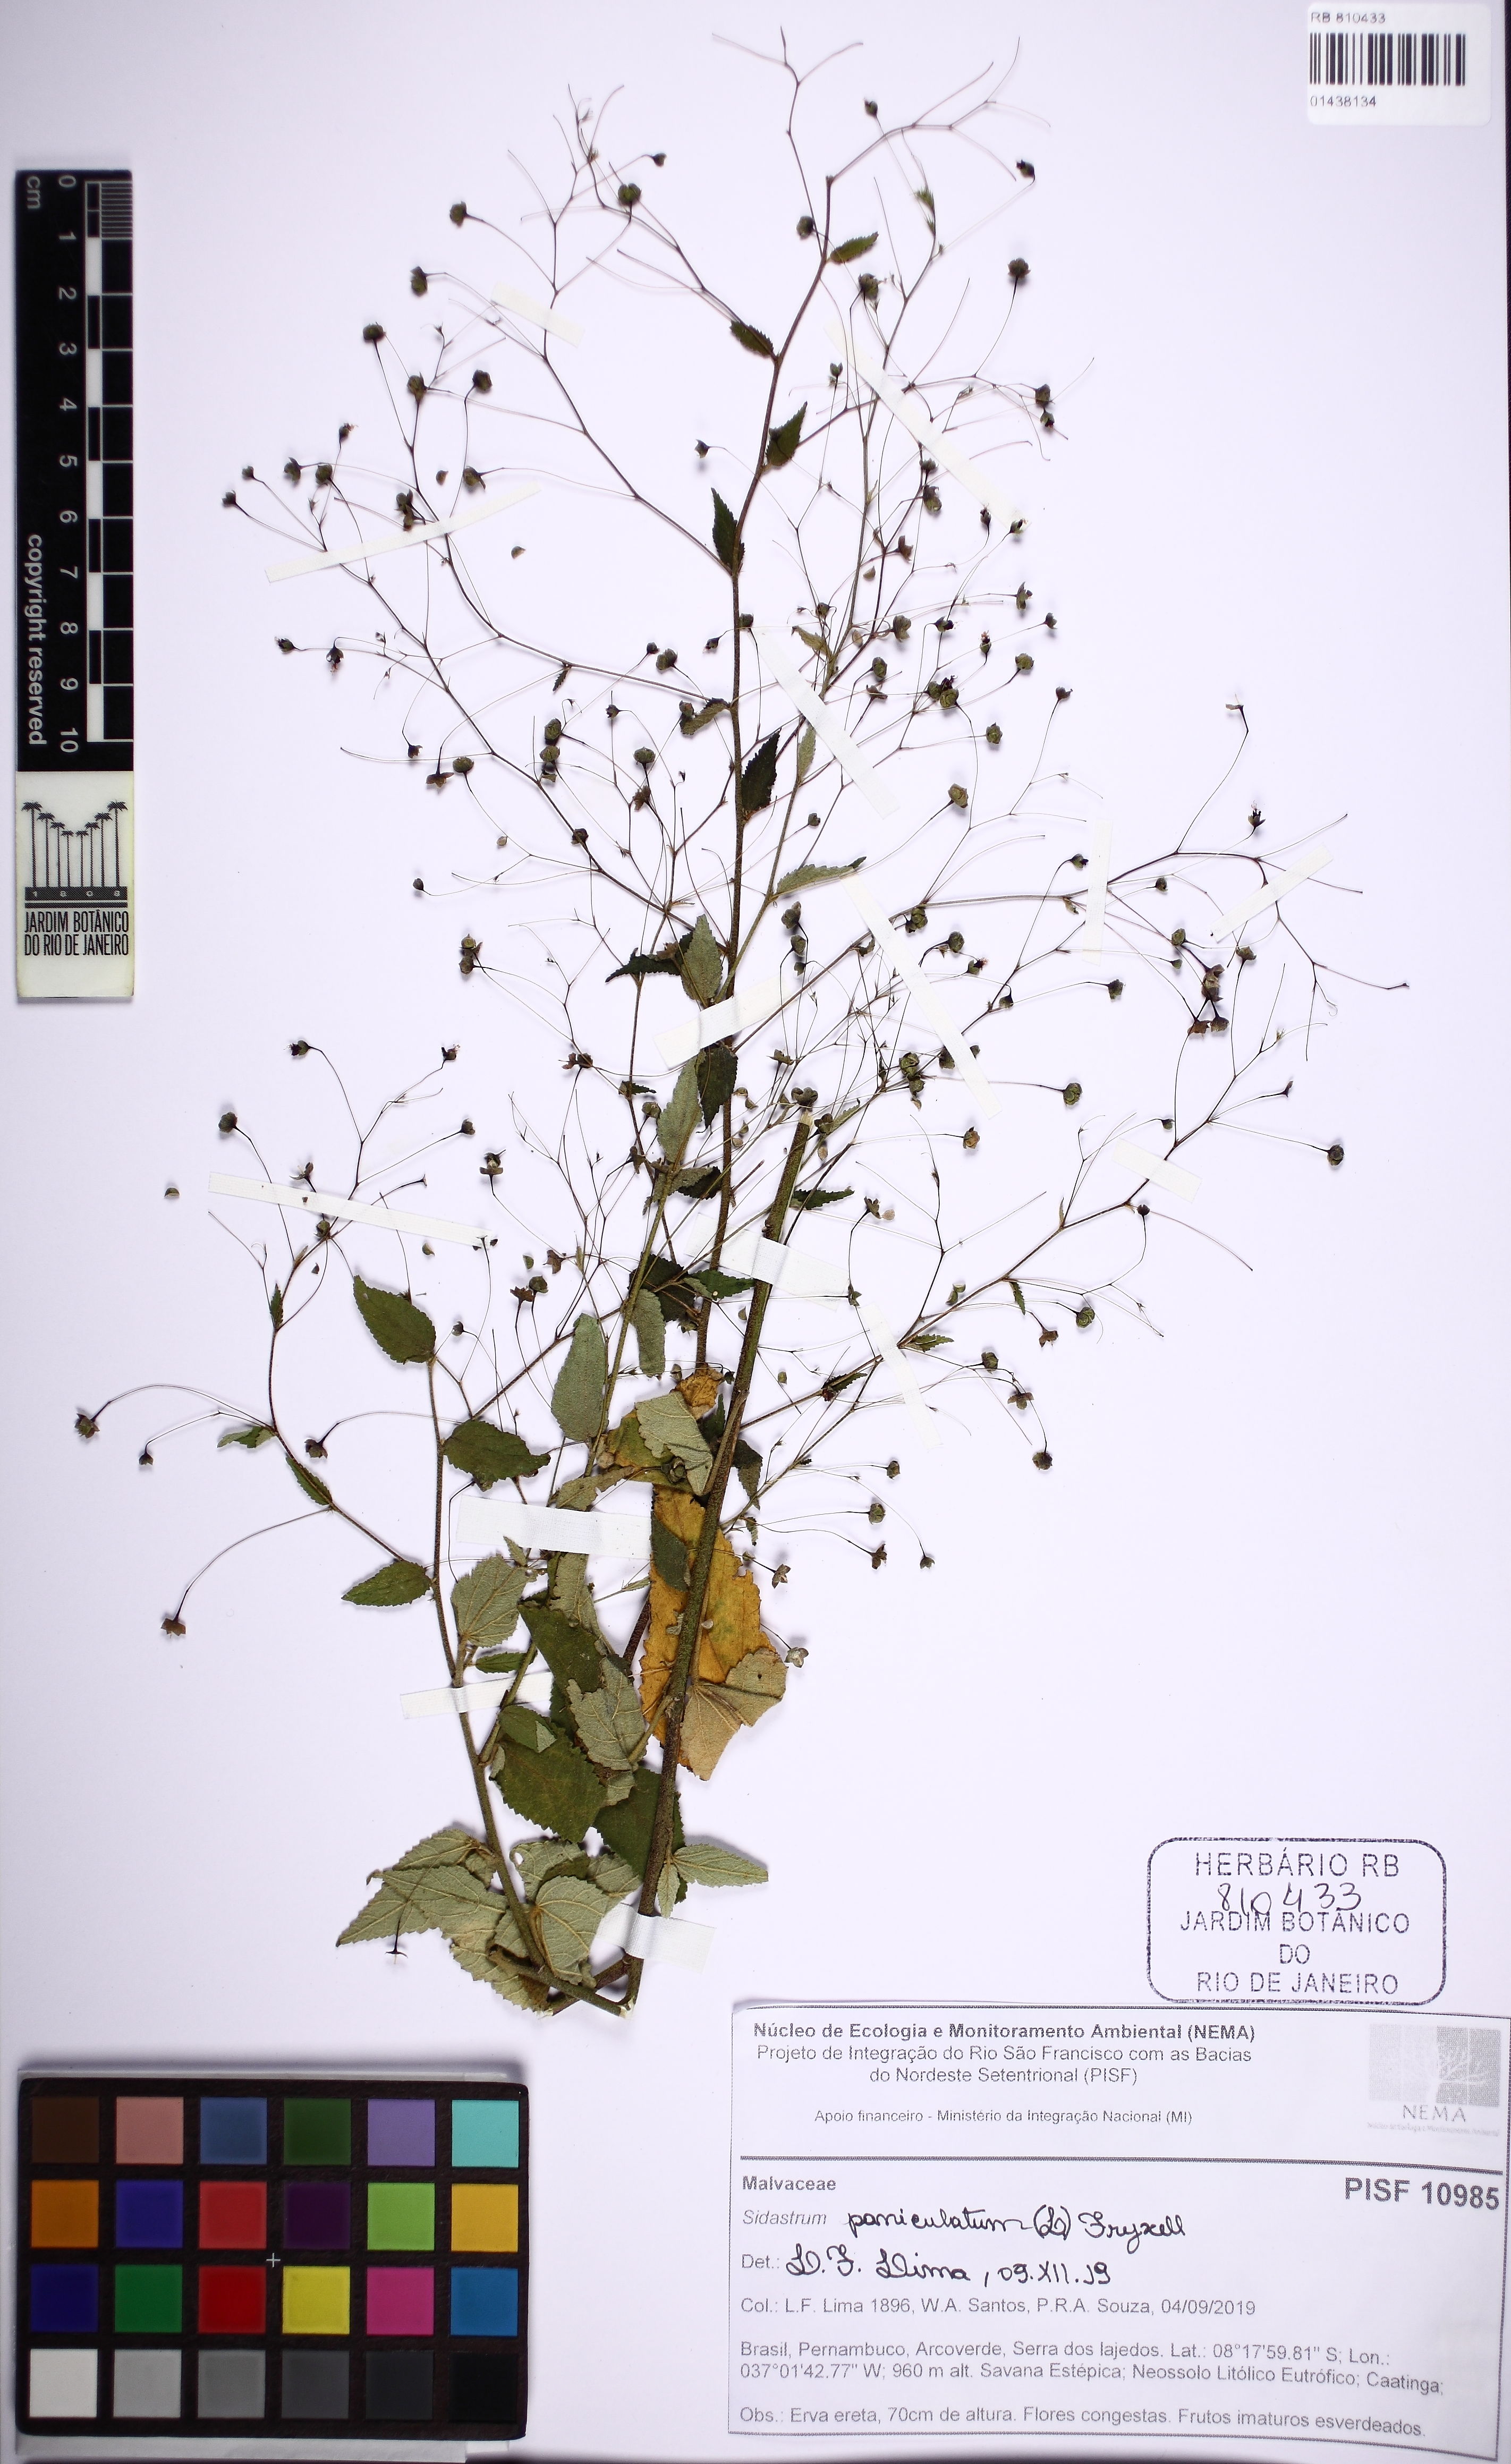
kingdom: Plantae
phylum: Tracheophyta
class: Magnoliopsida
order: Malvales
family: Malvaceae
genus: Sidastrum
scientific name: Sidastrum paniculatum
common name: Panicled sandmallow
